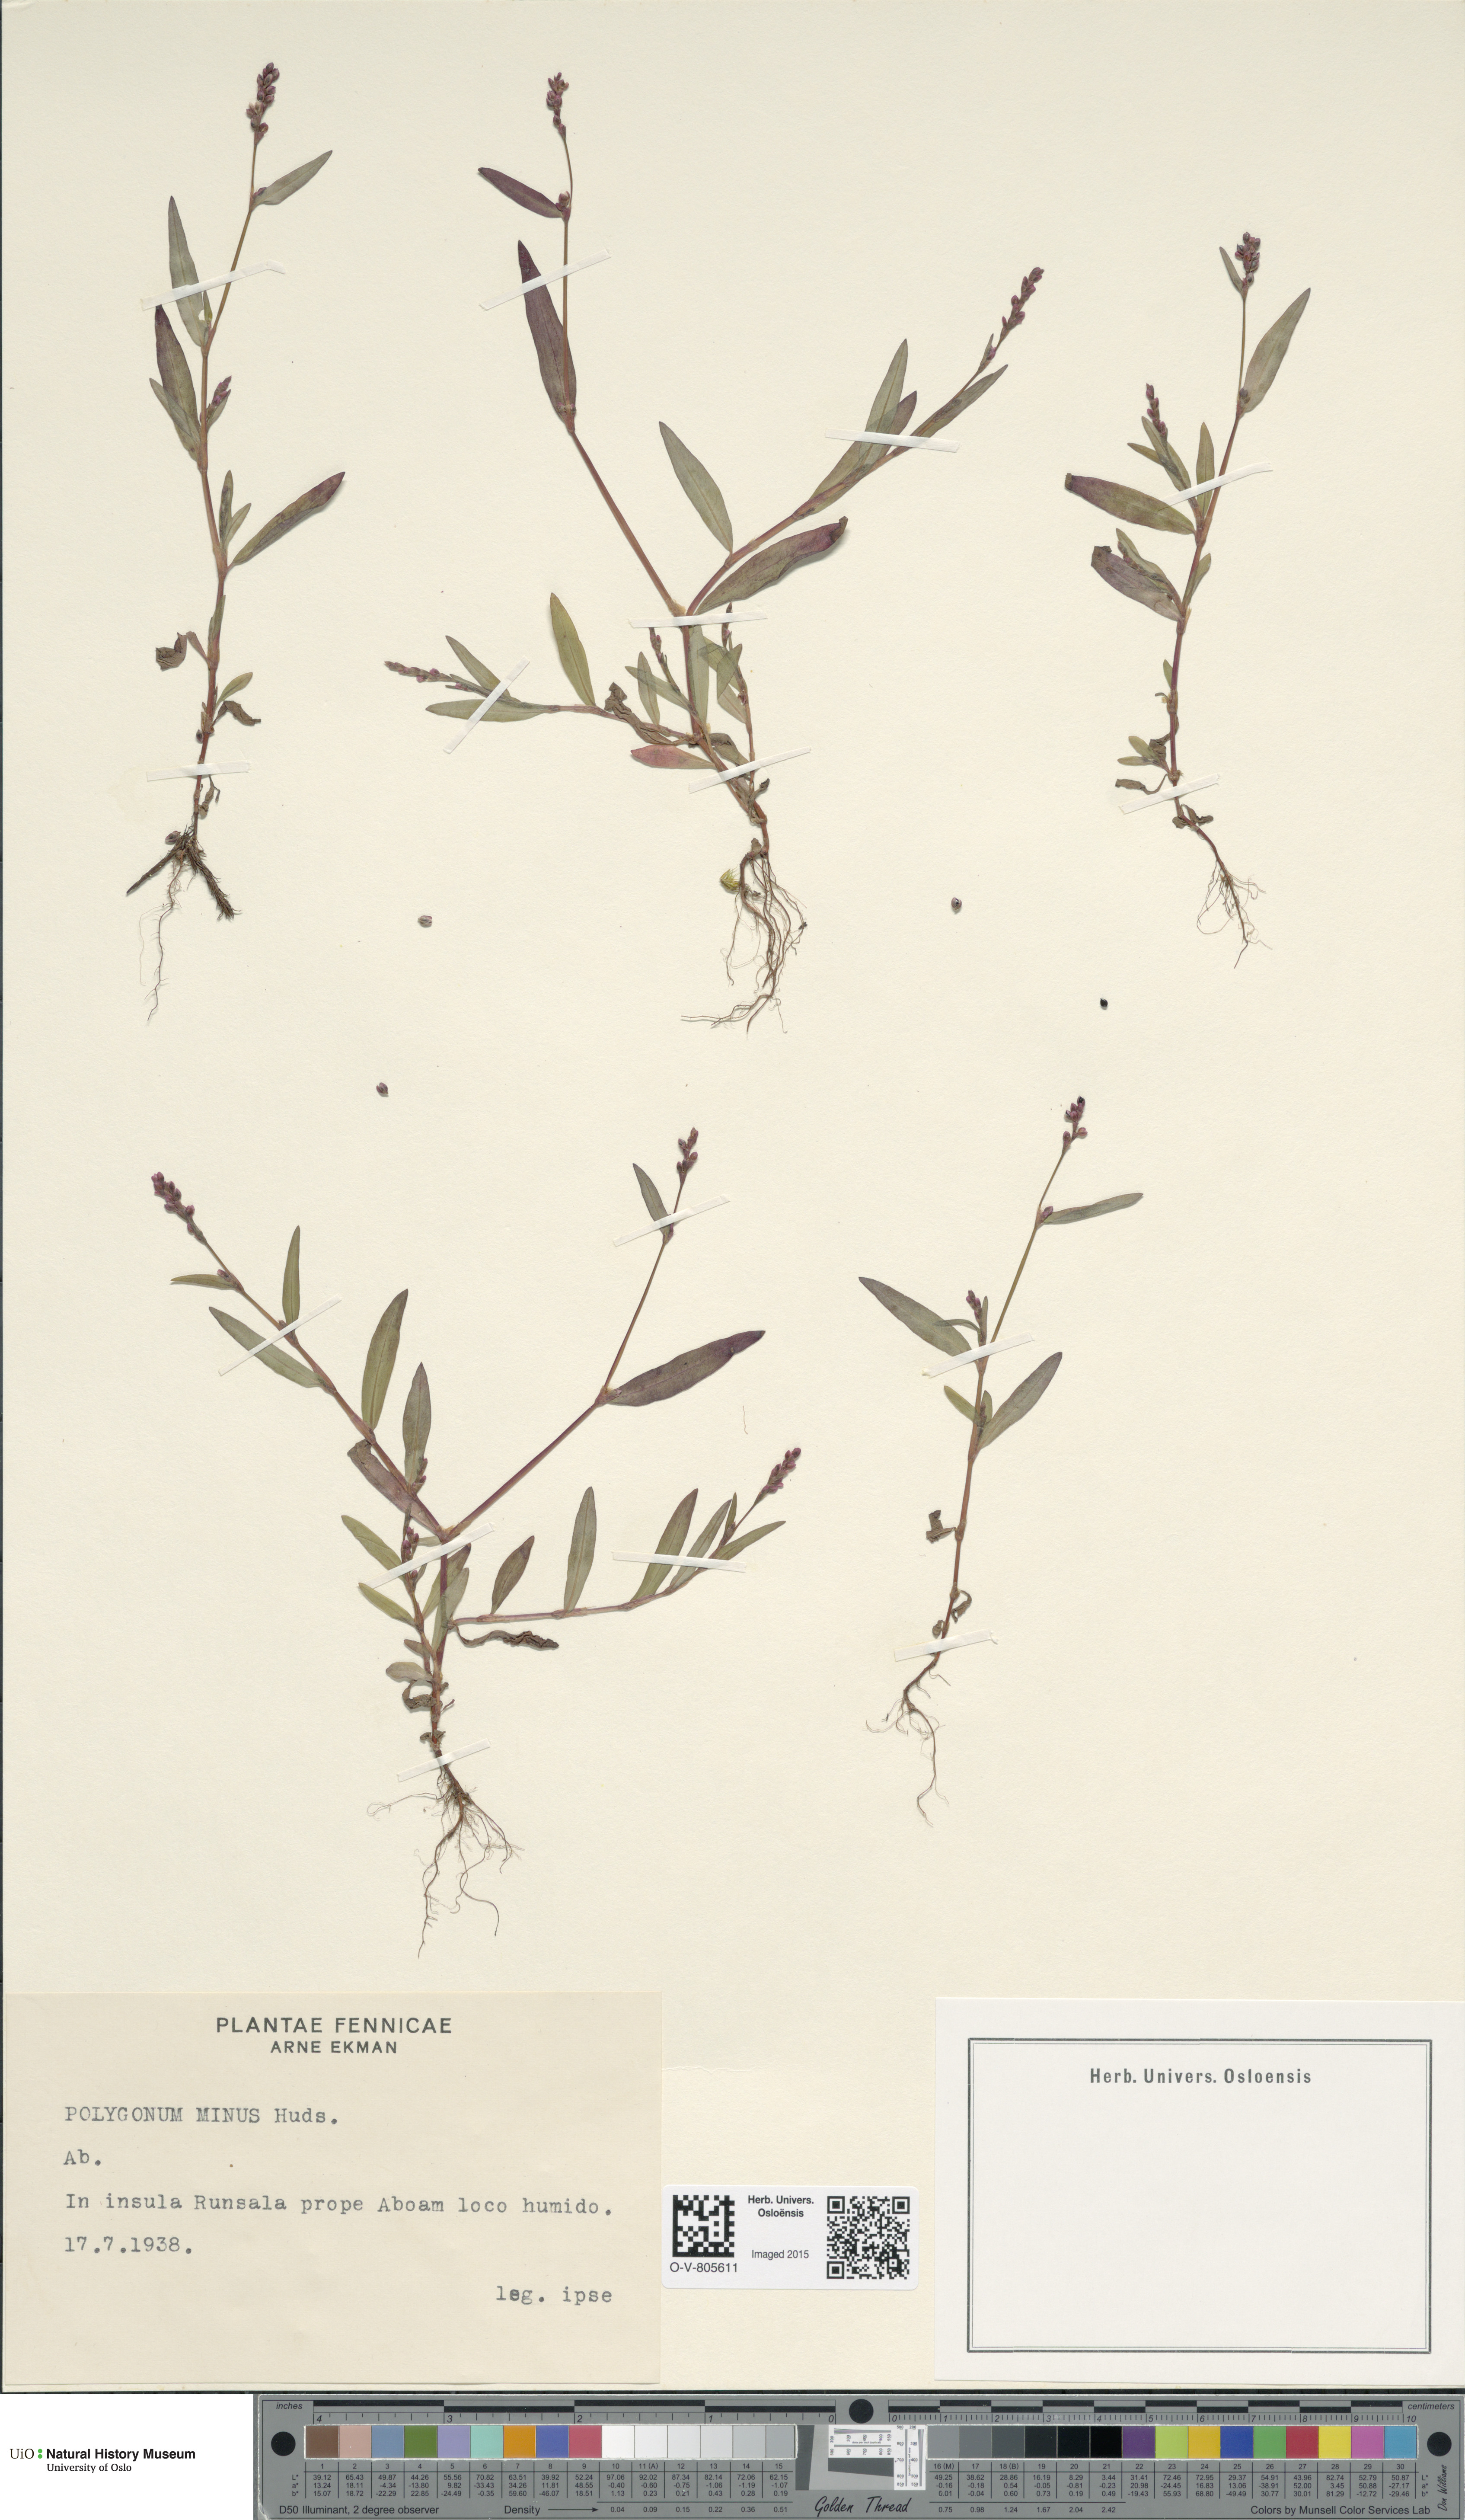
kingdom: Plantae
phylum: Tracheophyta
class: Magnoliopsida
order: Caryophyllales
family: Polygonaceae
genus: Persicaria
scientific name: Persicaria minor
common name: Small water-pepper
